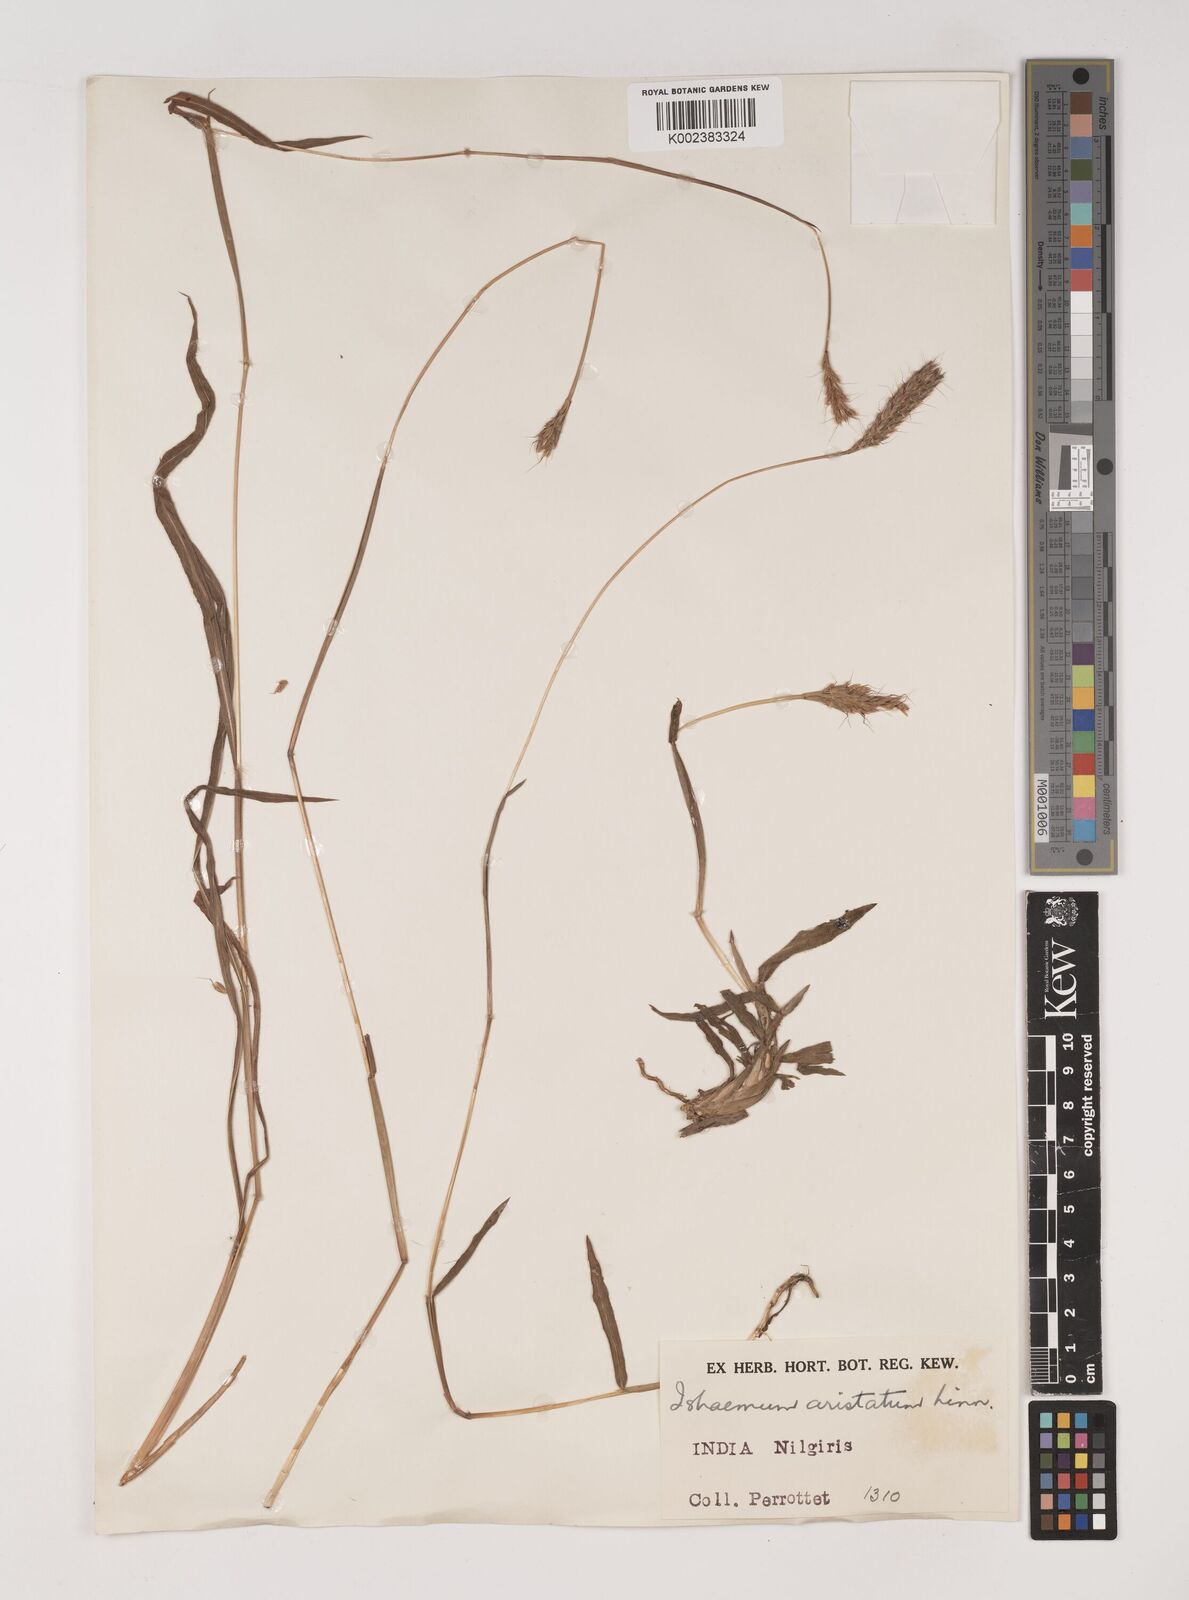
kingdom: Plantae
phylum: Tracheophyta
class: Liliopsida
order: Poales
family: Poaceae
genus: Polytrias
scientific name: Polytrias indica
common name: Indian murainagrass
